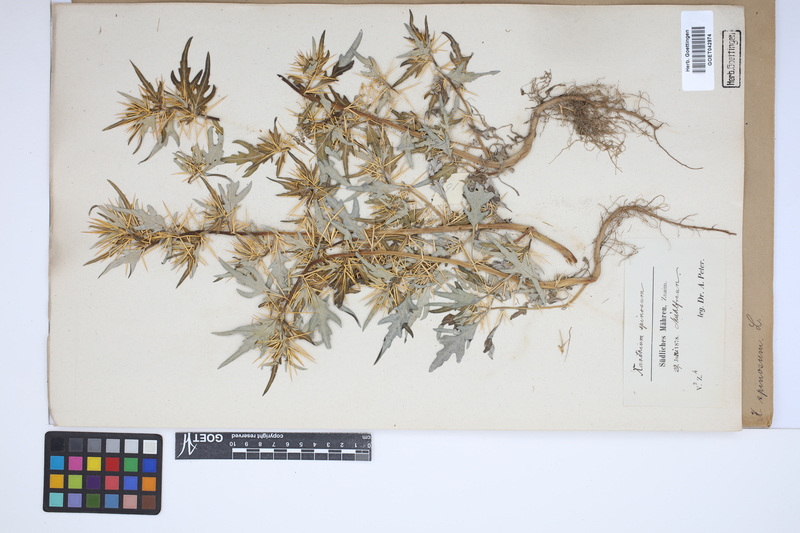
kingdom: Plantae
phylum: Tracheophyta
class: Magnoliopsida
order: Asterales
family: Asteraceae
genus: Xanthium
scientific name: Xanthium spinosum
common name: Spiny cocklebur
